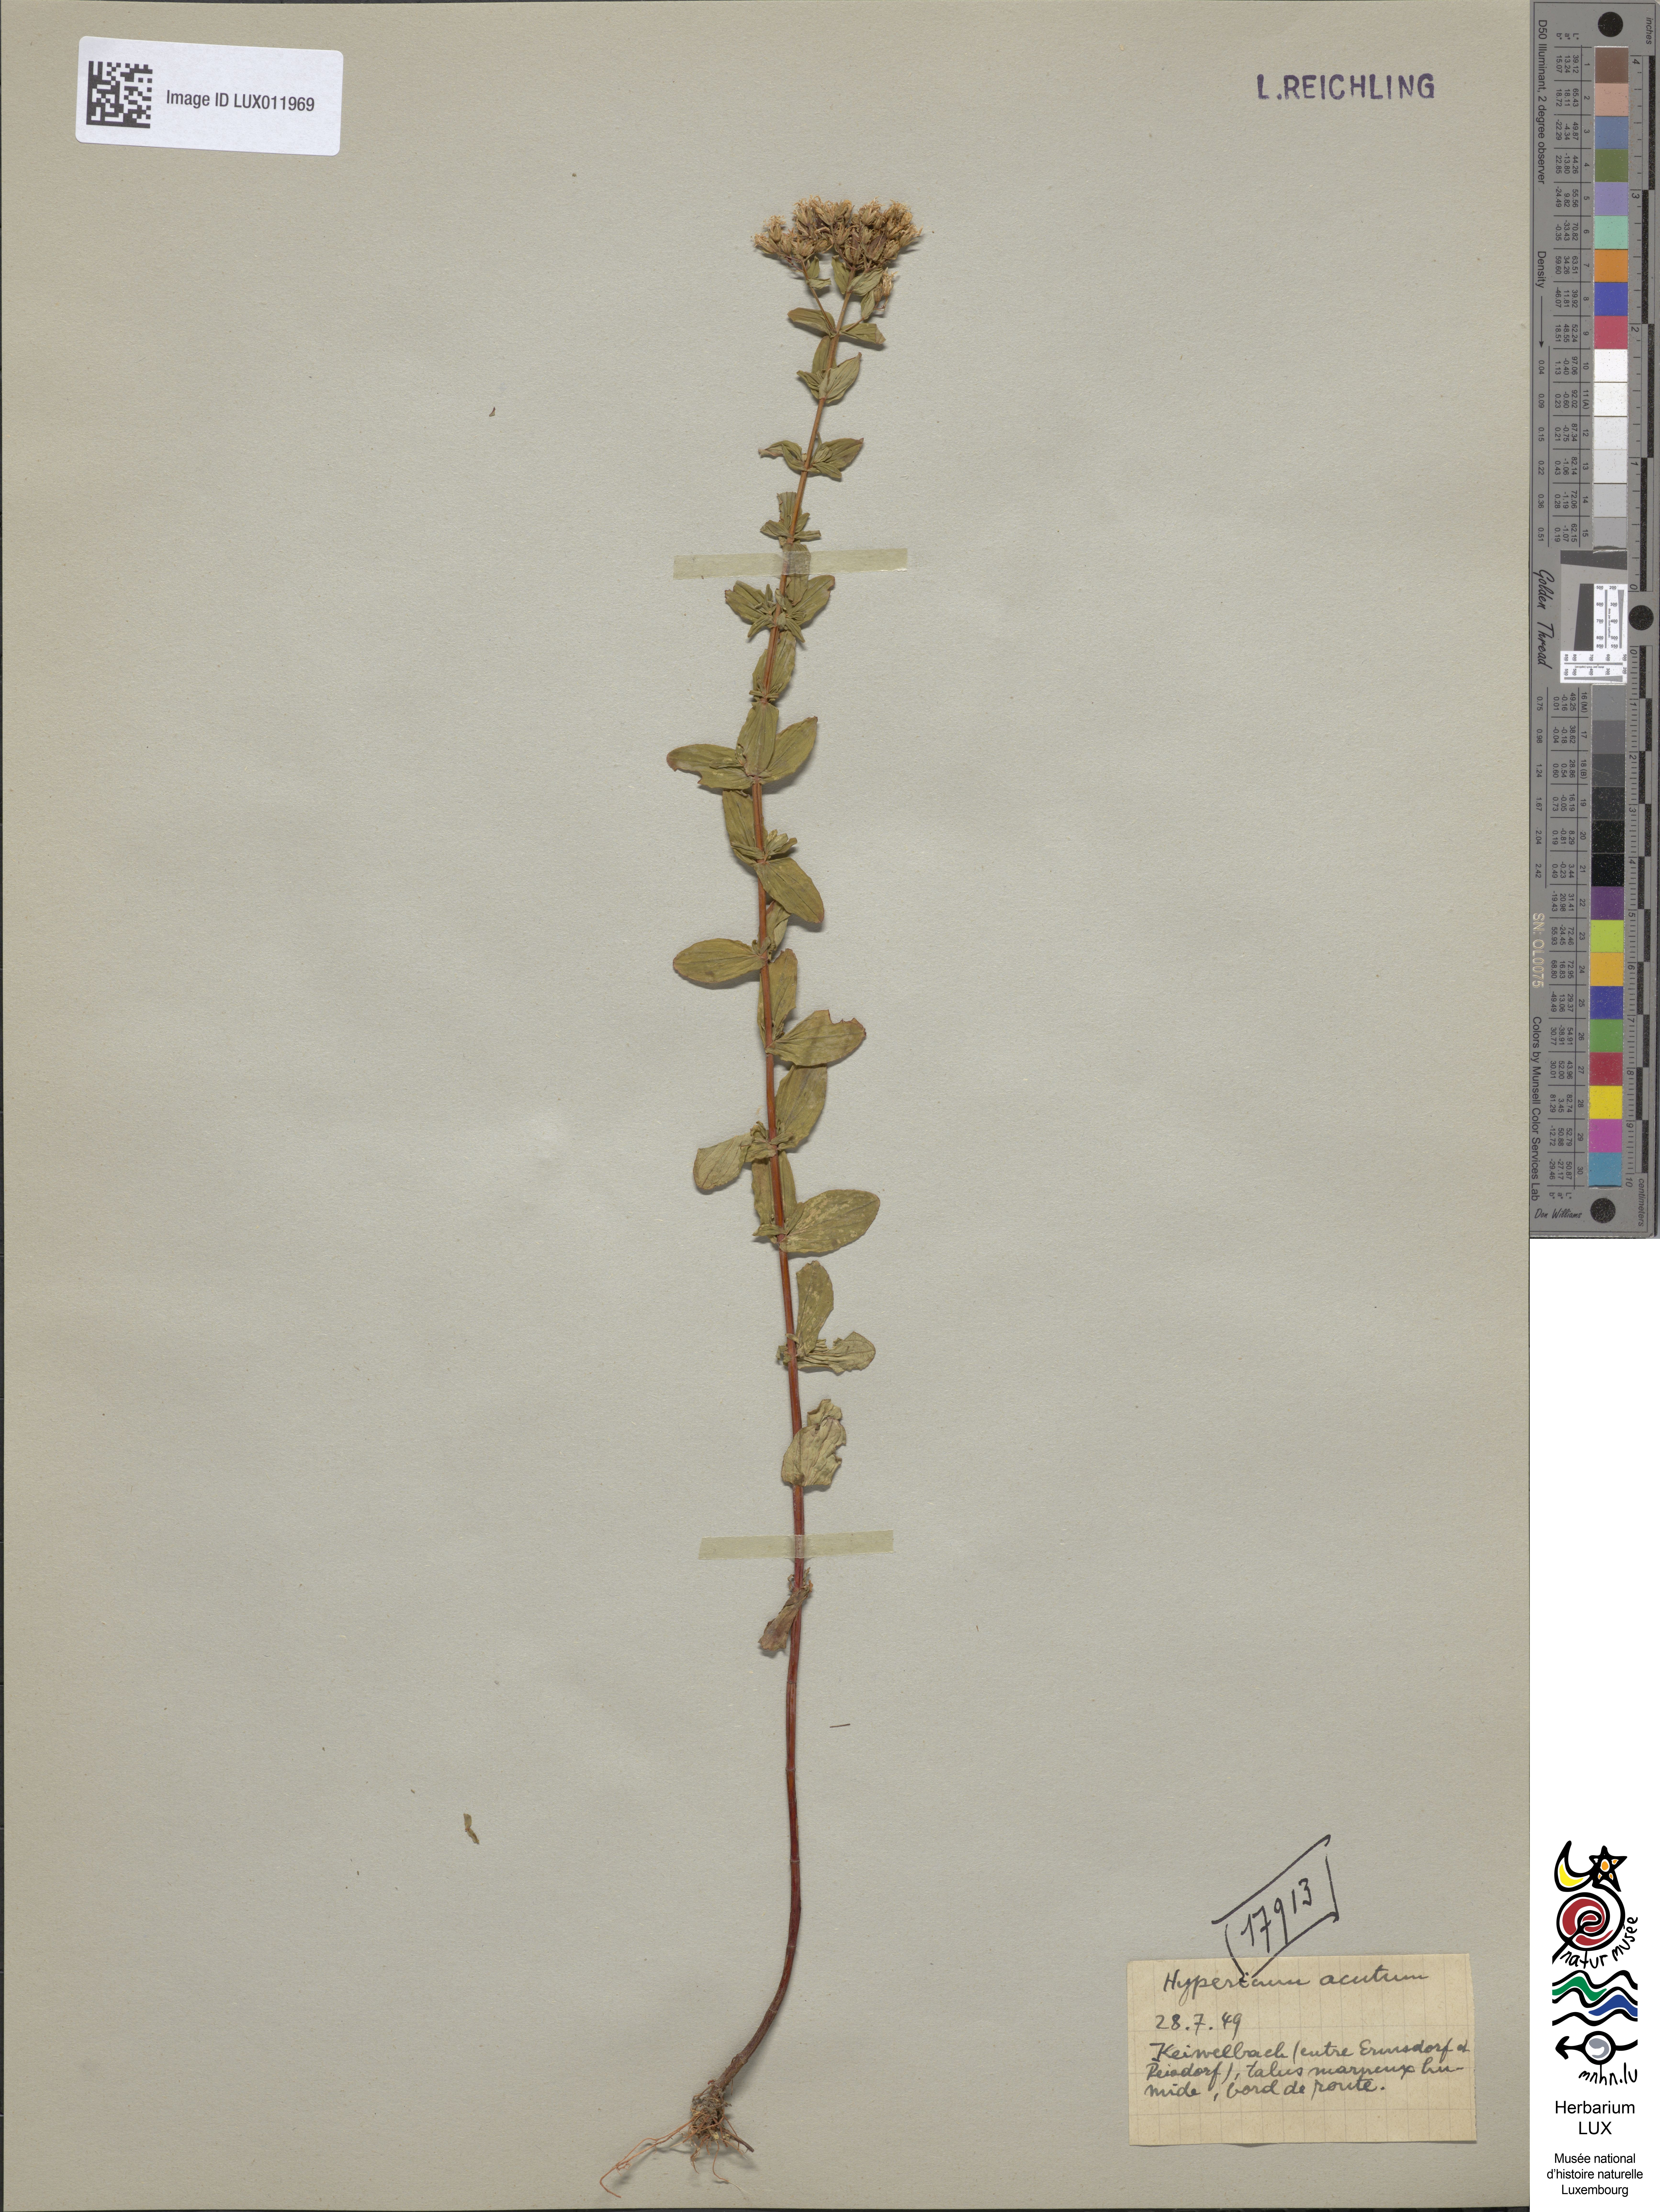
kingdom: Plantae
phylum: Tracheophyta
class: Magnoliopsida
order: Malpighiales
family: Hypericaceae
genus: Hypericum
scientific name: Hypericum tetrapterum
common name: Square-stalked st. john's-wort
